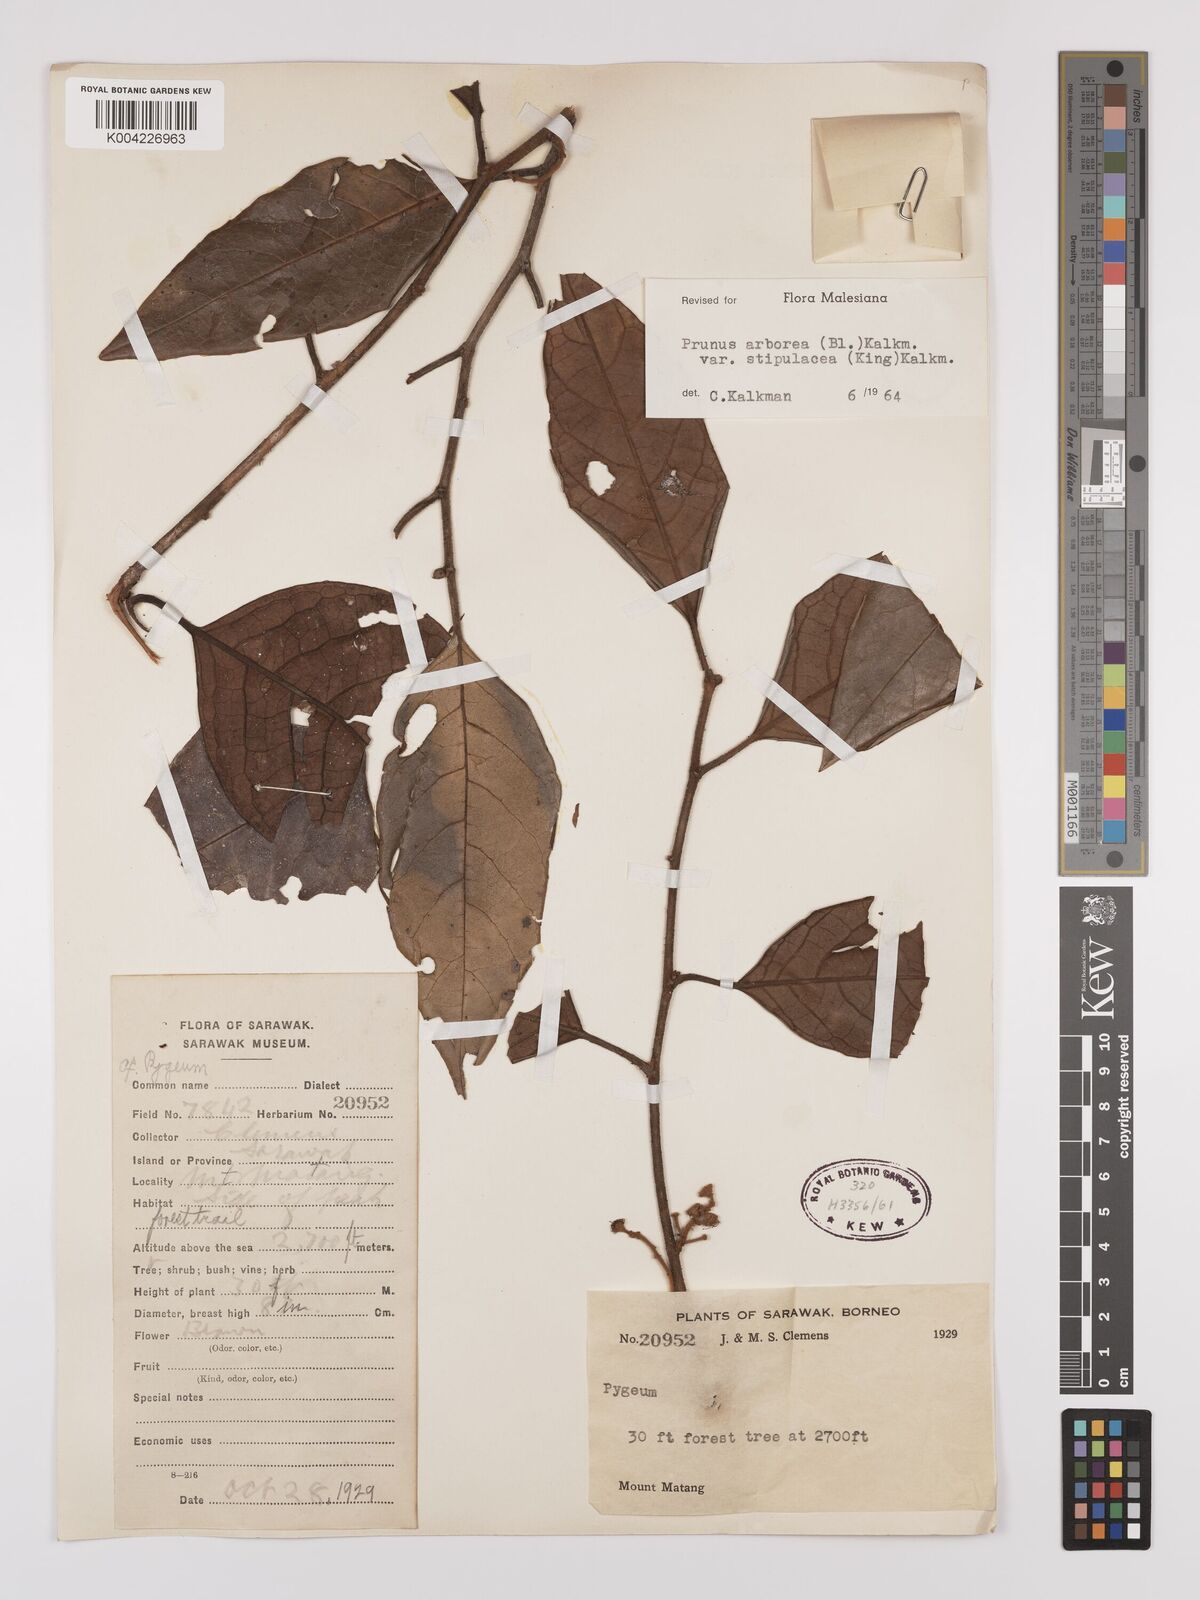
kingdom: Plantae
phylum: Tracheophyta
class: Magnoliopsida
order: Rosales
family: Rosaceae
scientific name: Rosaceae
